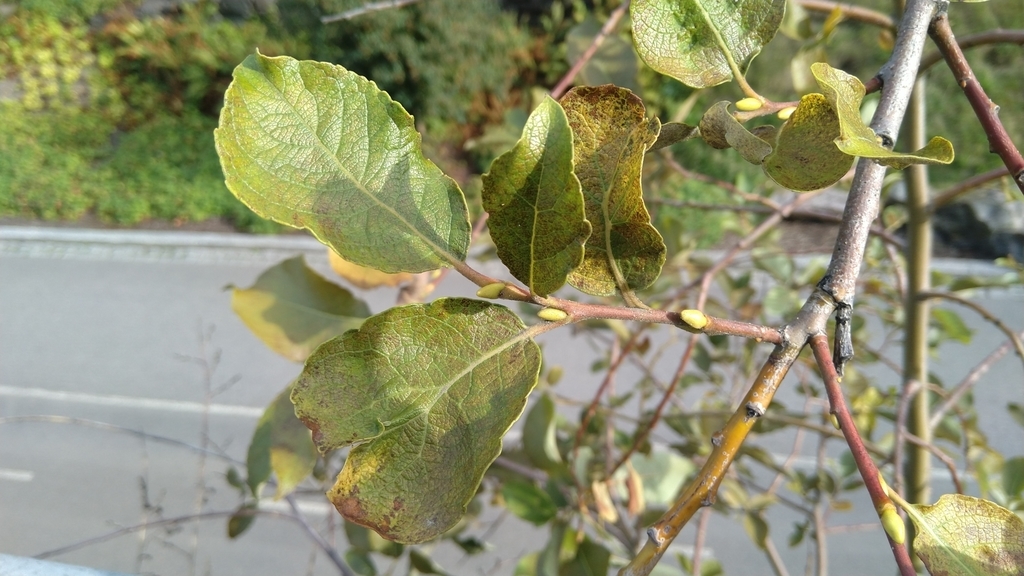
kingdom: Plantae
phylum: Tracheophyta
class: Magnoliopsida
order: Malpighiales
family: Salicaceae
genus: Salix
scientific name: Salix
